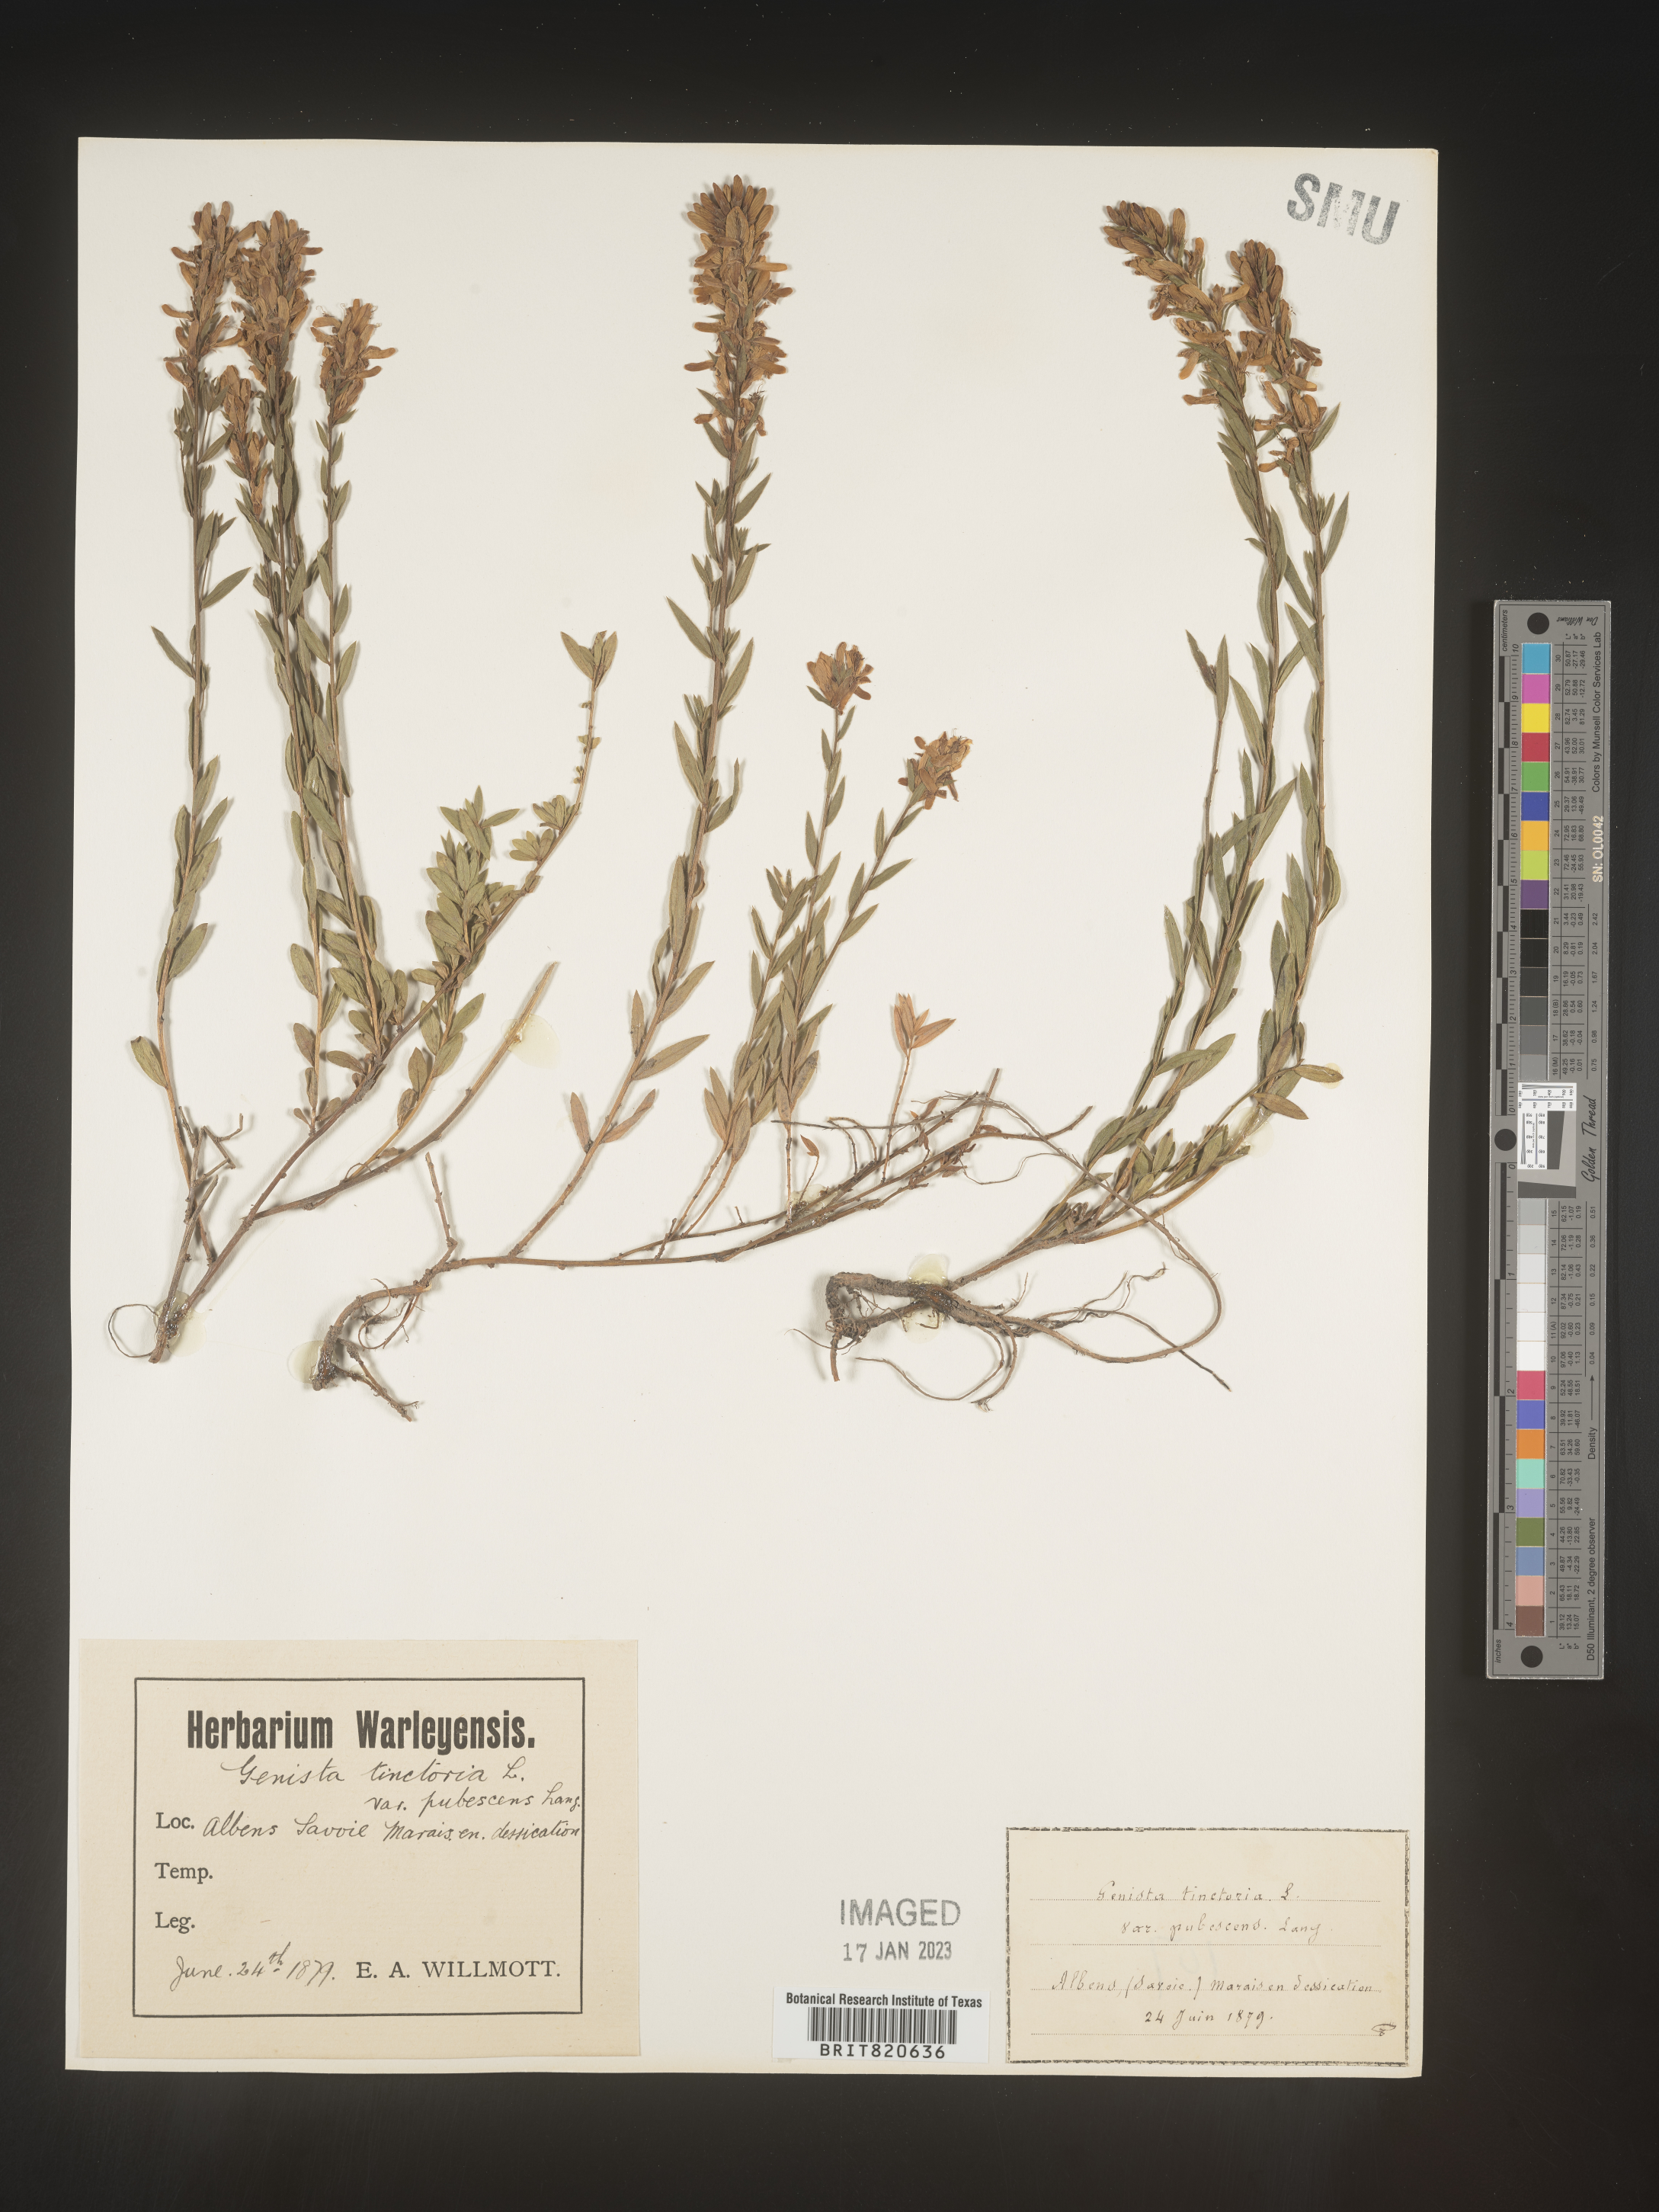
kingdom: Plantae
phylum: Tracheophyta
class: Magnoliopsida
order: Fabales
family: Fabaceae
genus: Genista
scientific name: Genista tinctoria
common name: Dyer's greenweed
